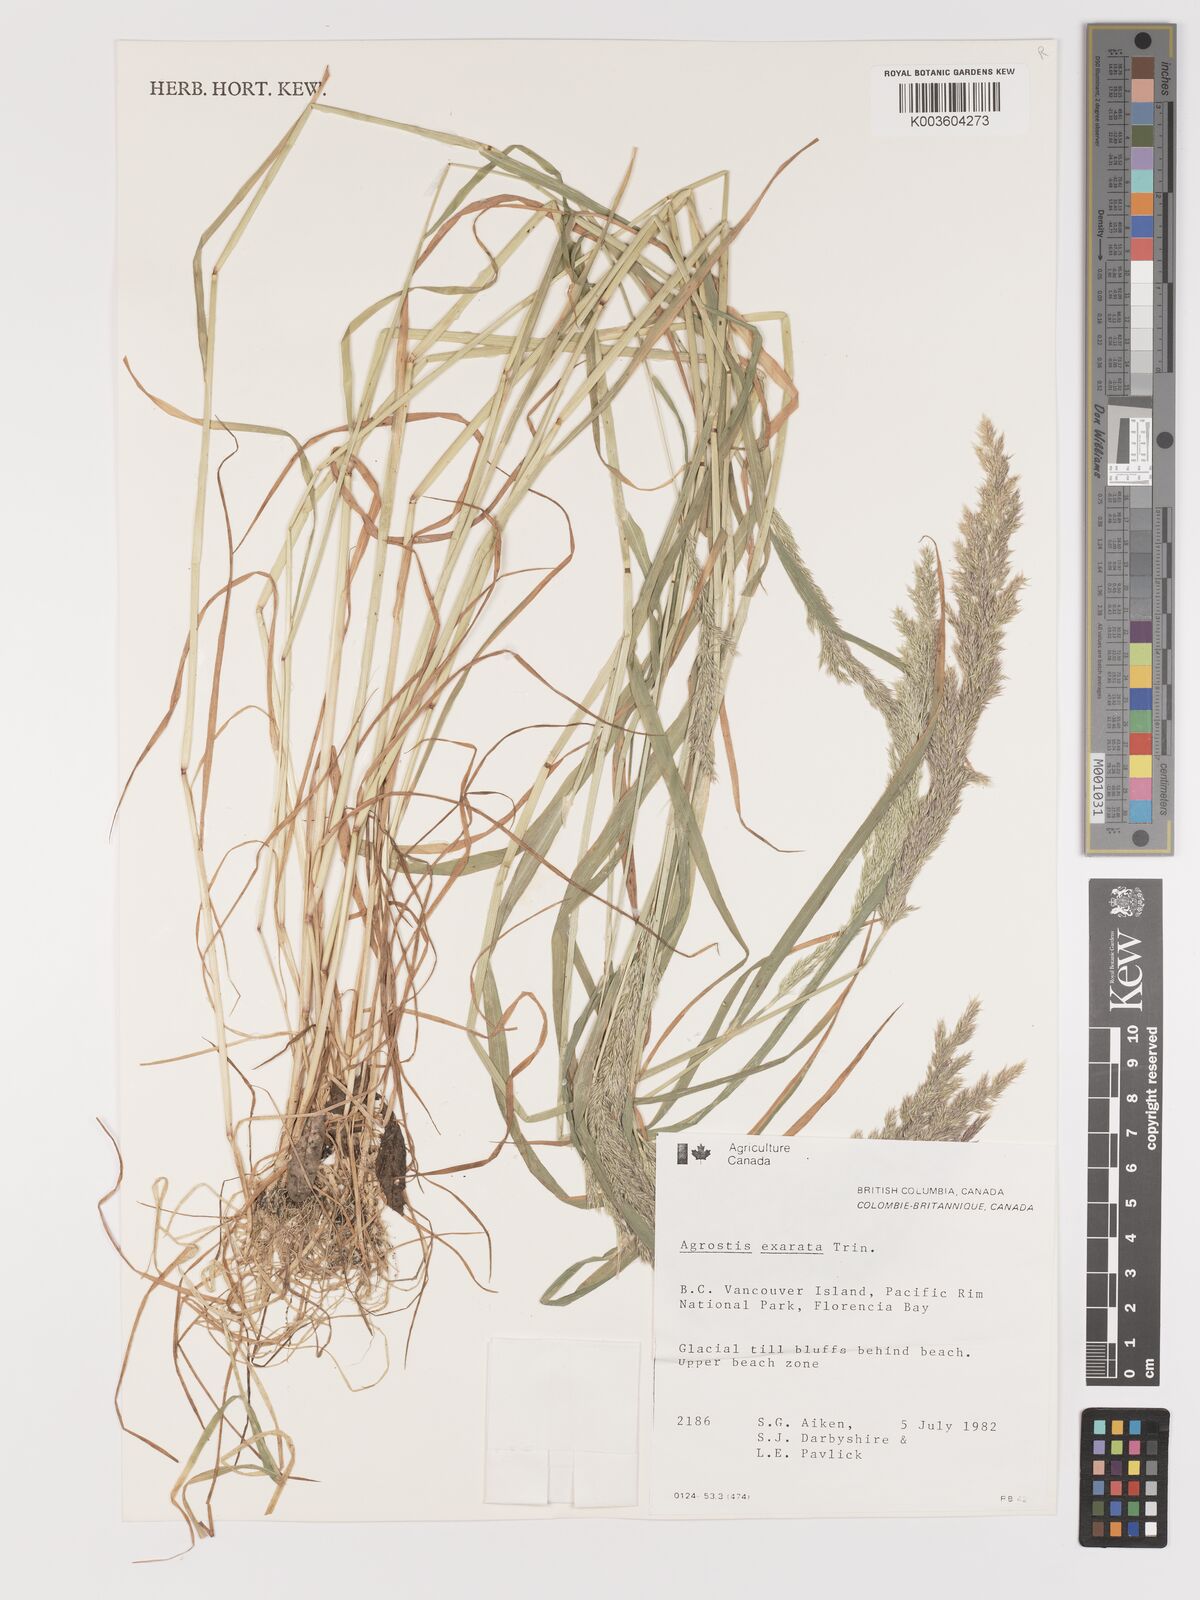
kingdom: Plantae
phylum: Tracheophyta
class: Liliopsida
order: Poales
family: Poaceae
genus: Agrostis
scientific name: Agrostis exarata
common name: Spike bent
